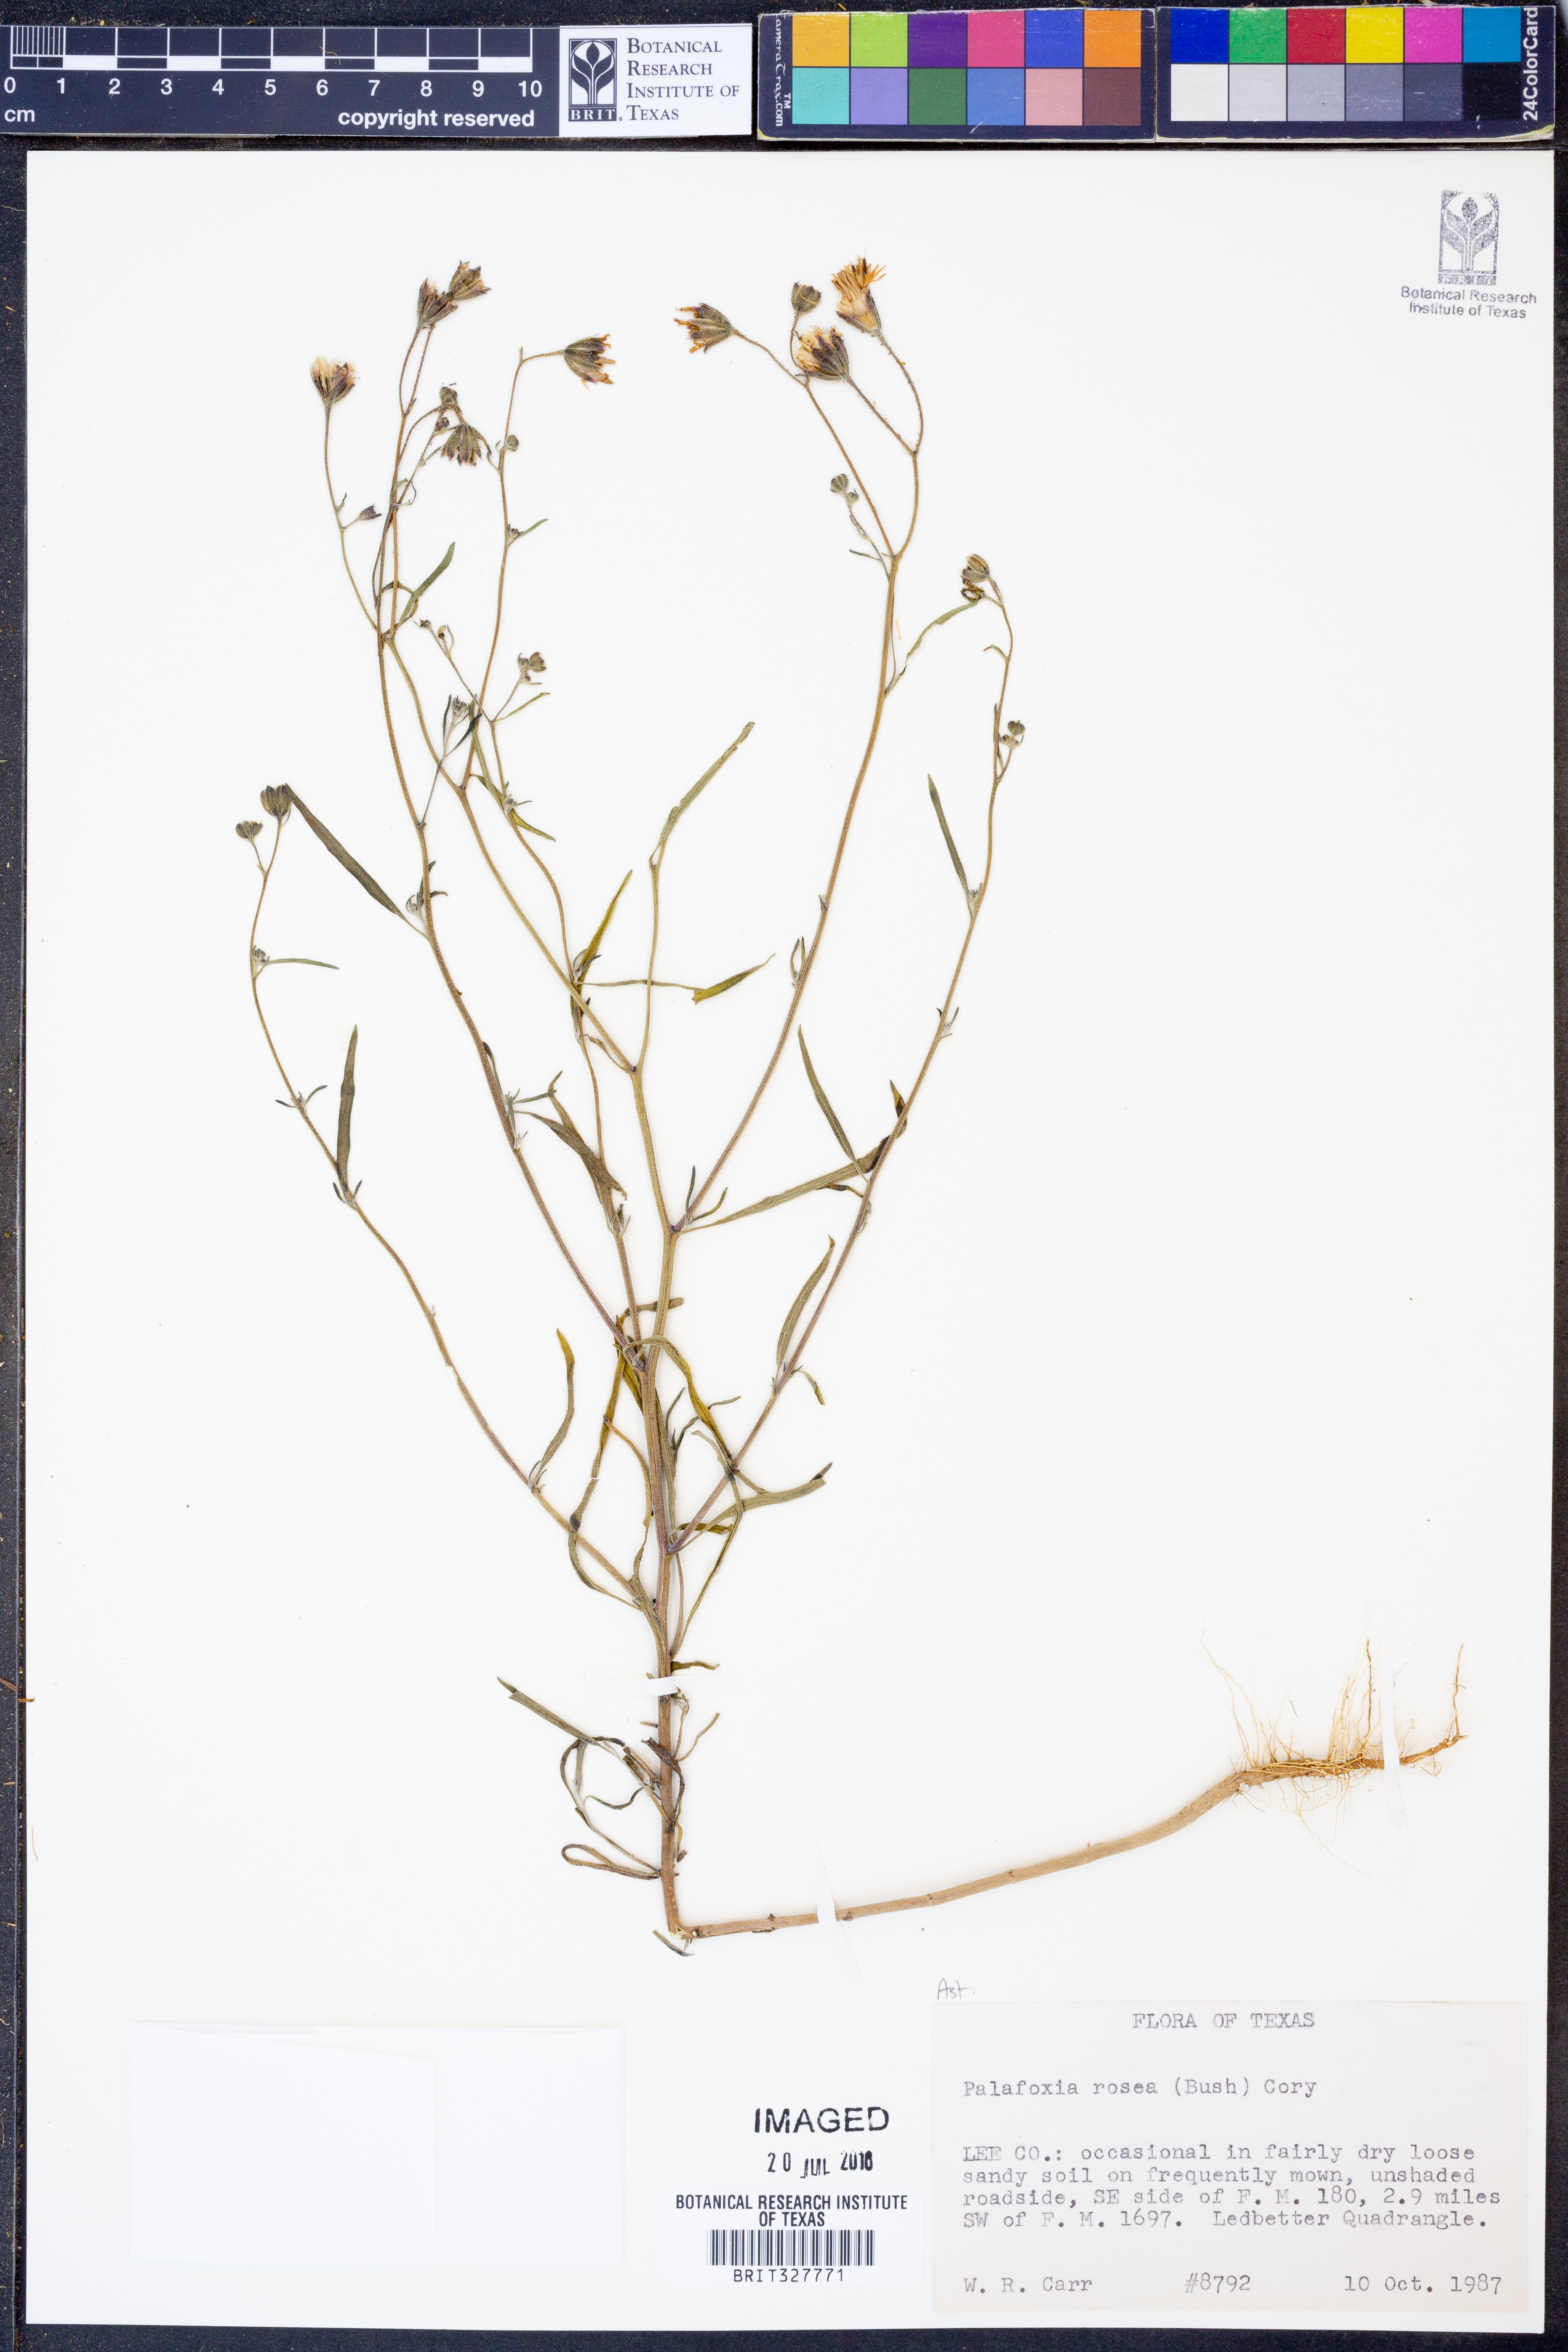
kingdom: Plantae
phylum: Tracheophyta
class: Magnoliopsida
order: Asterales
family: Asteraceae
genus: Palafoxia
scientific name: Palafoxia rosea
